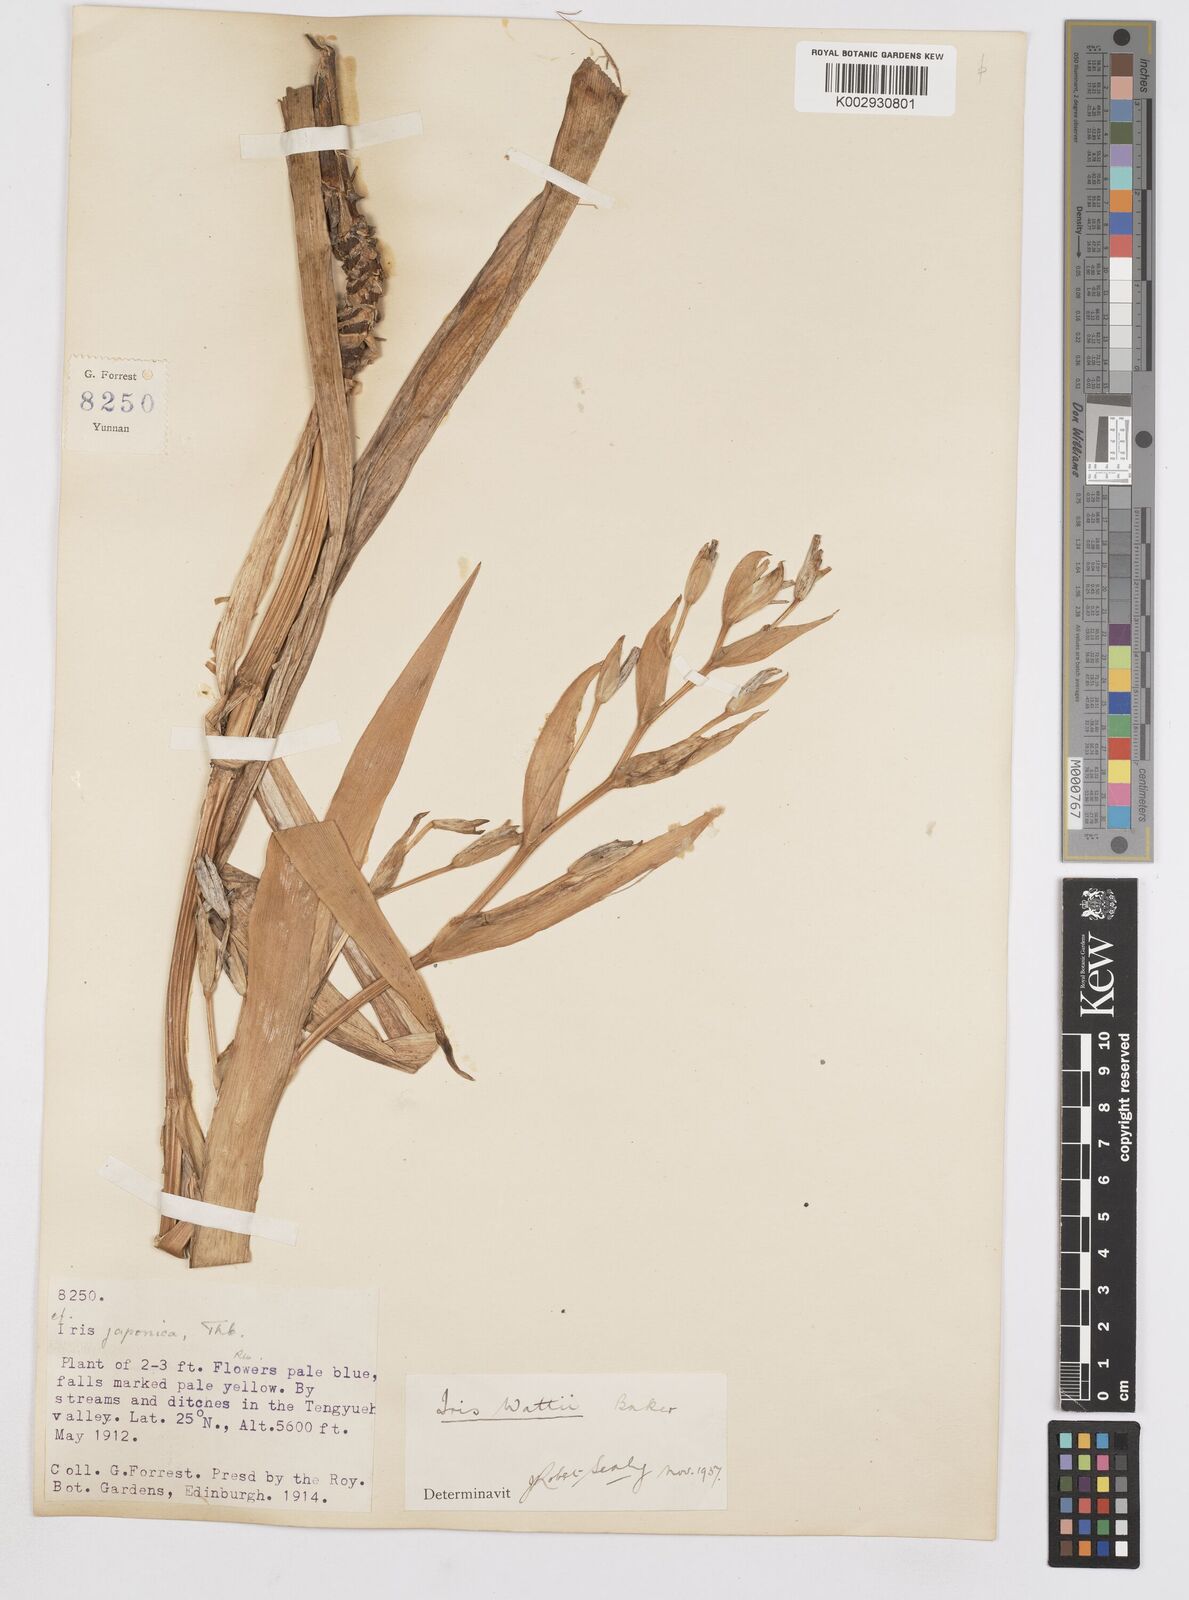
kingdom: Plantae
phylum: Tracheophyta
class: Liliopsida
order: Asparagales
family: Iridaceae
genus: Iris
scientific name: Iris wattii
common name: Fan-shape iris
